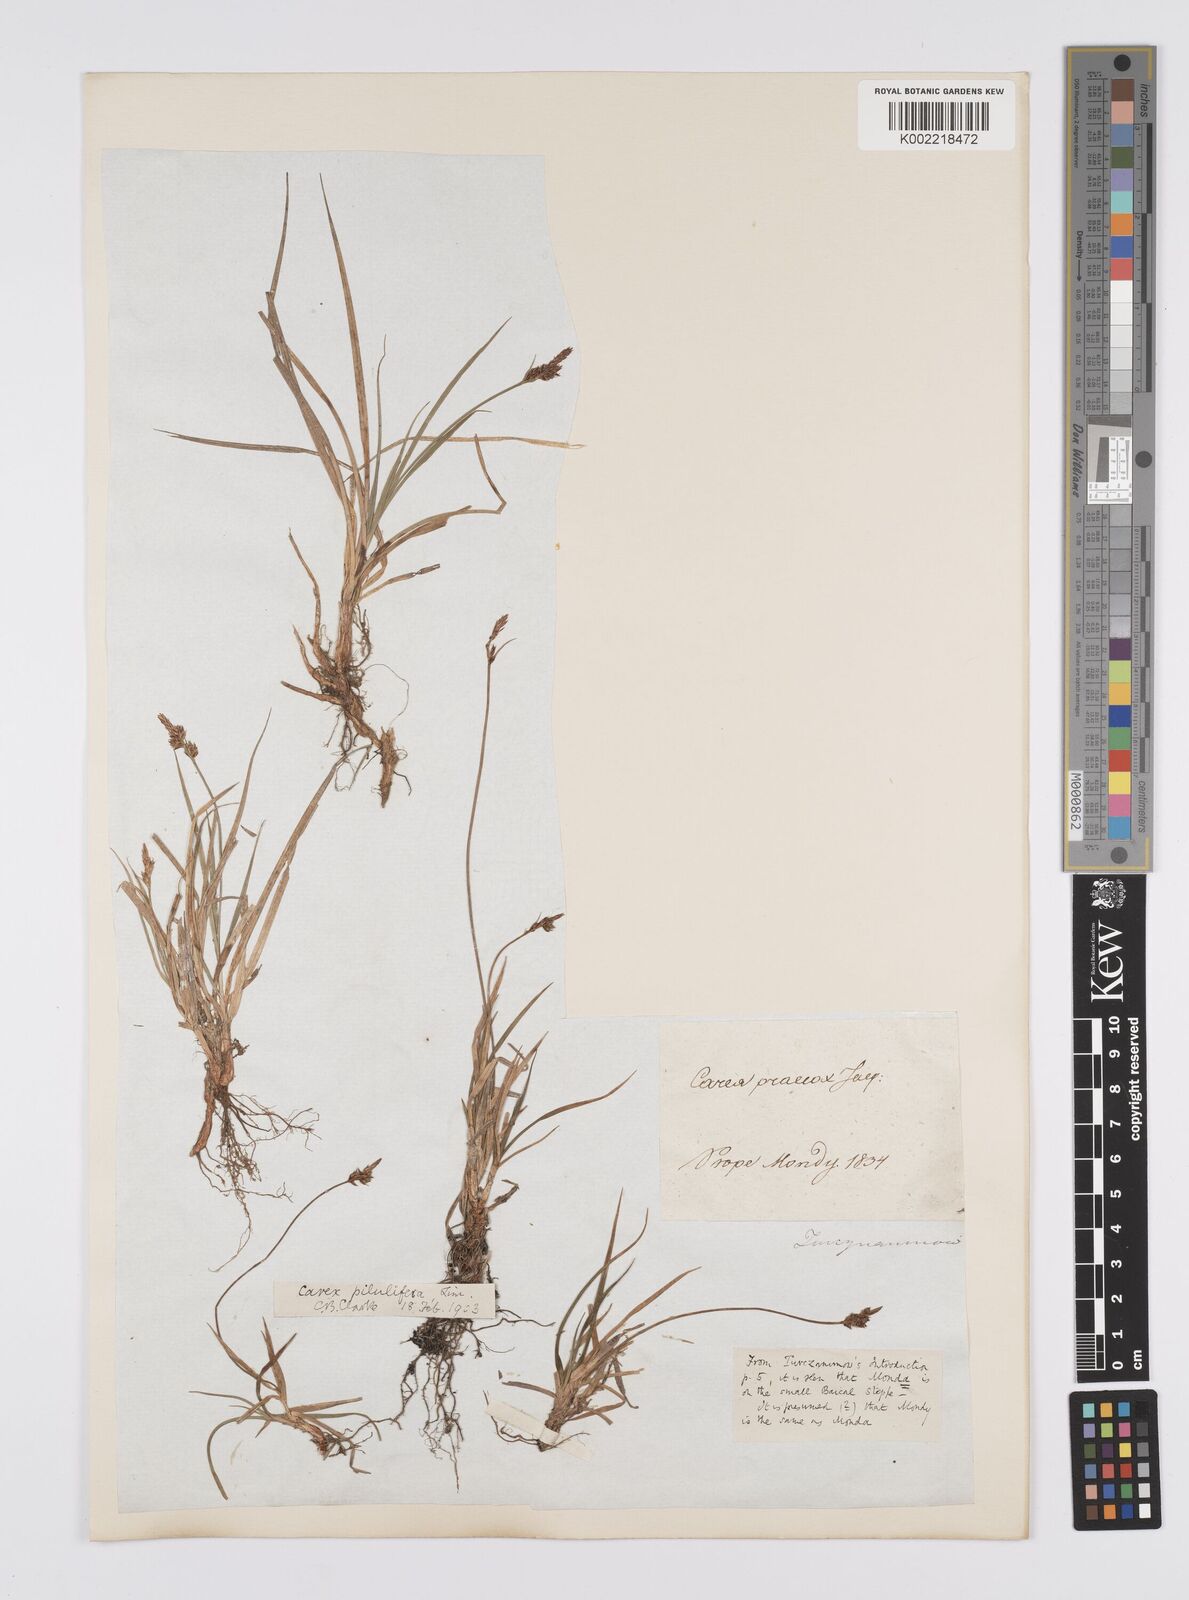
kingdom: Plantae
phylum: Tracheophyta
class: Liliopsida
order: Poales
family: Cyperaceae
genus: Carex
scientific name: Carex pilulifera
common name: Pill sedge
